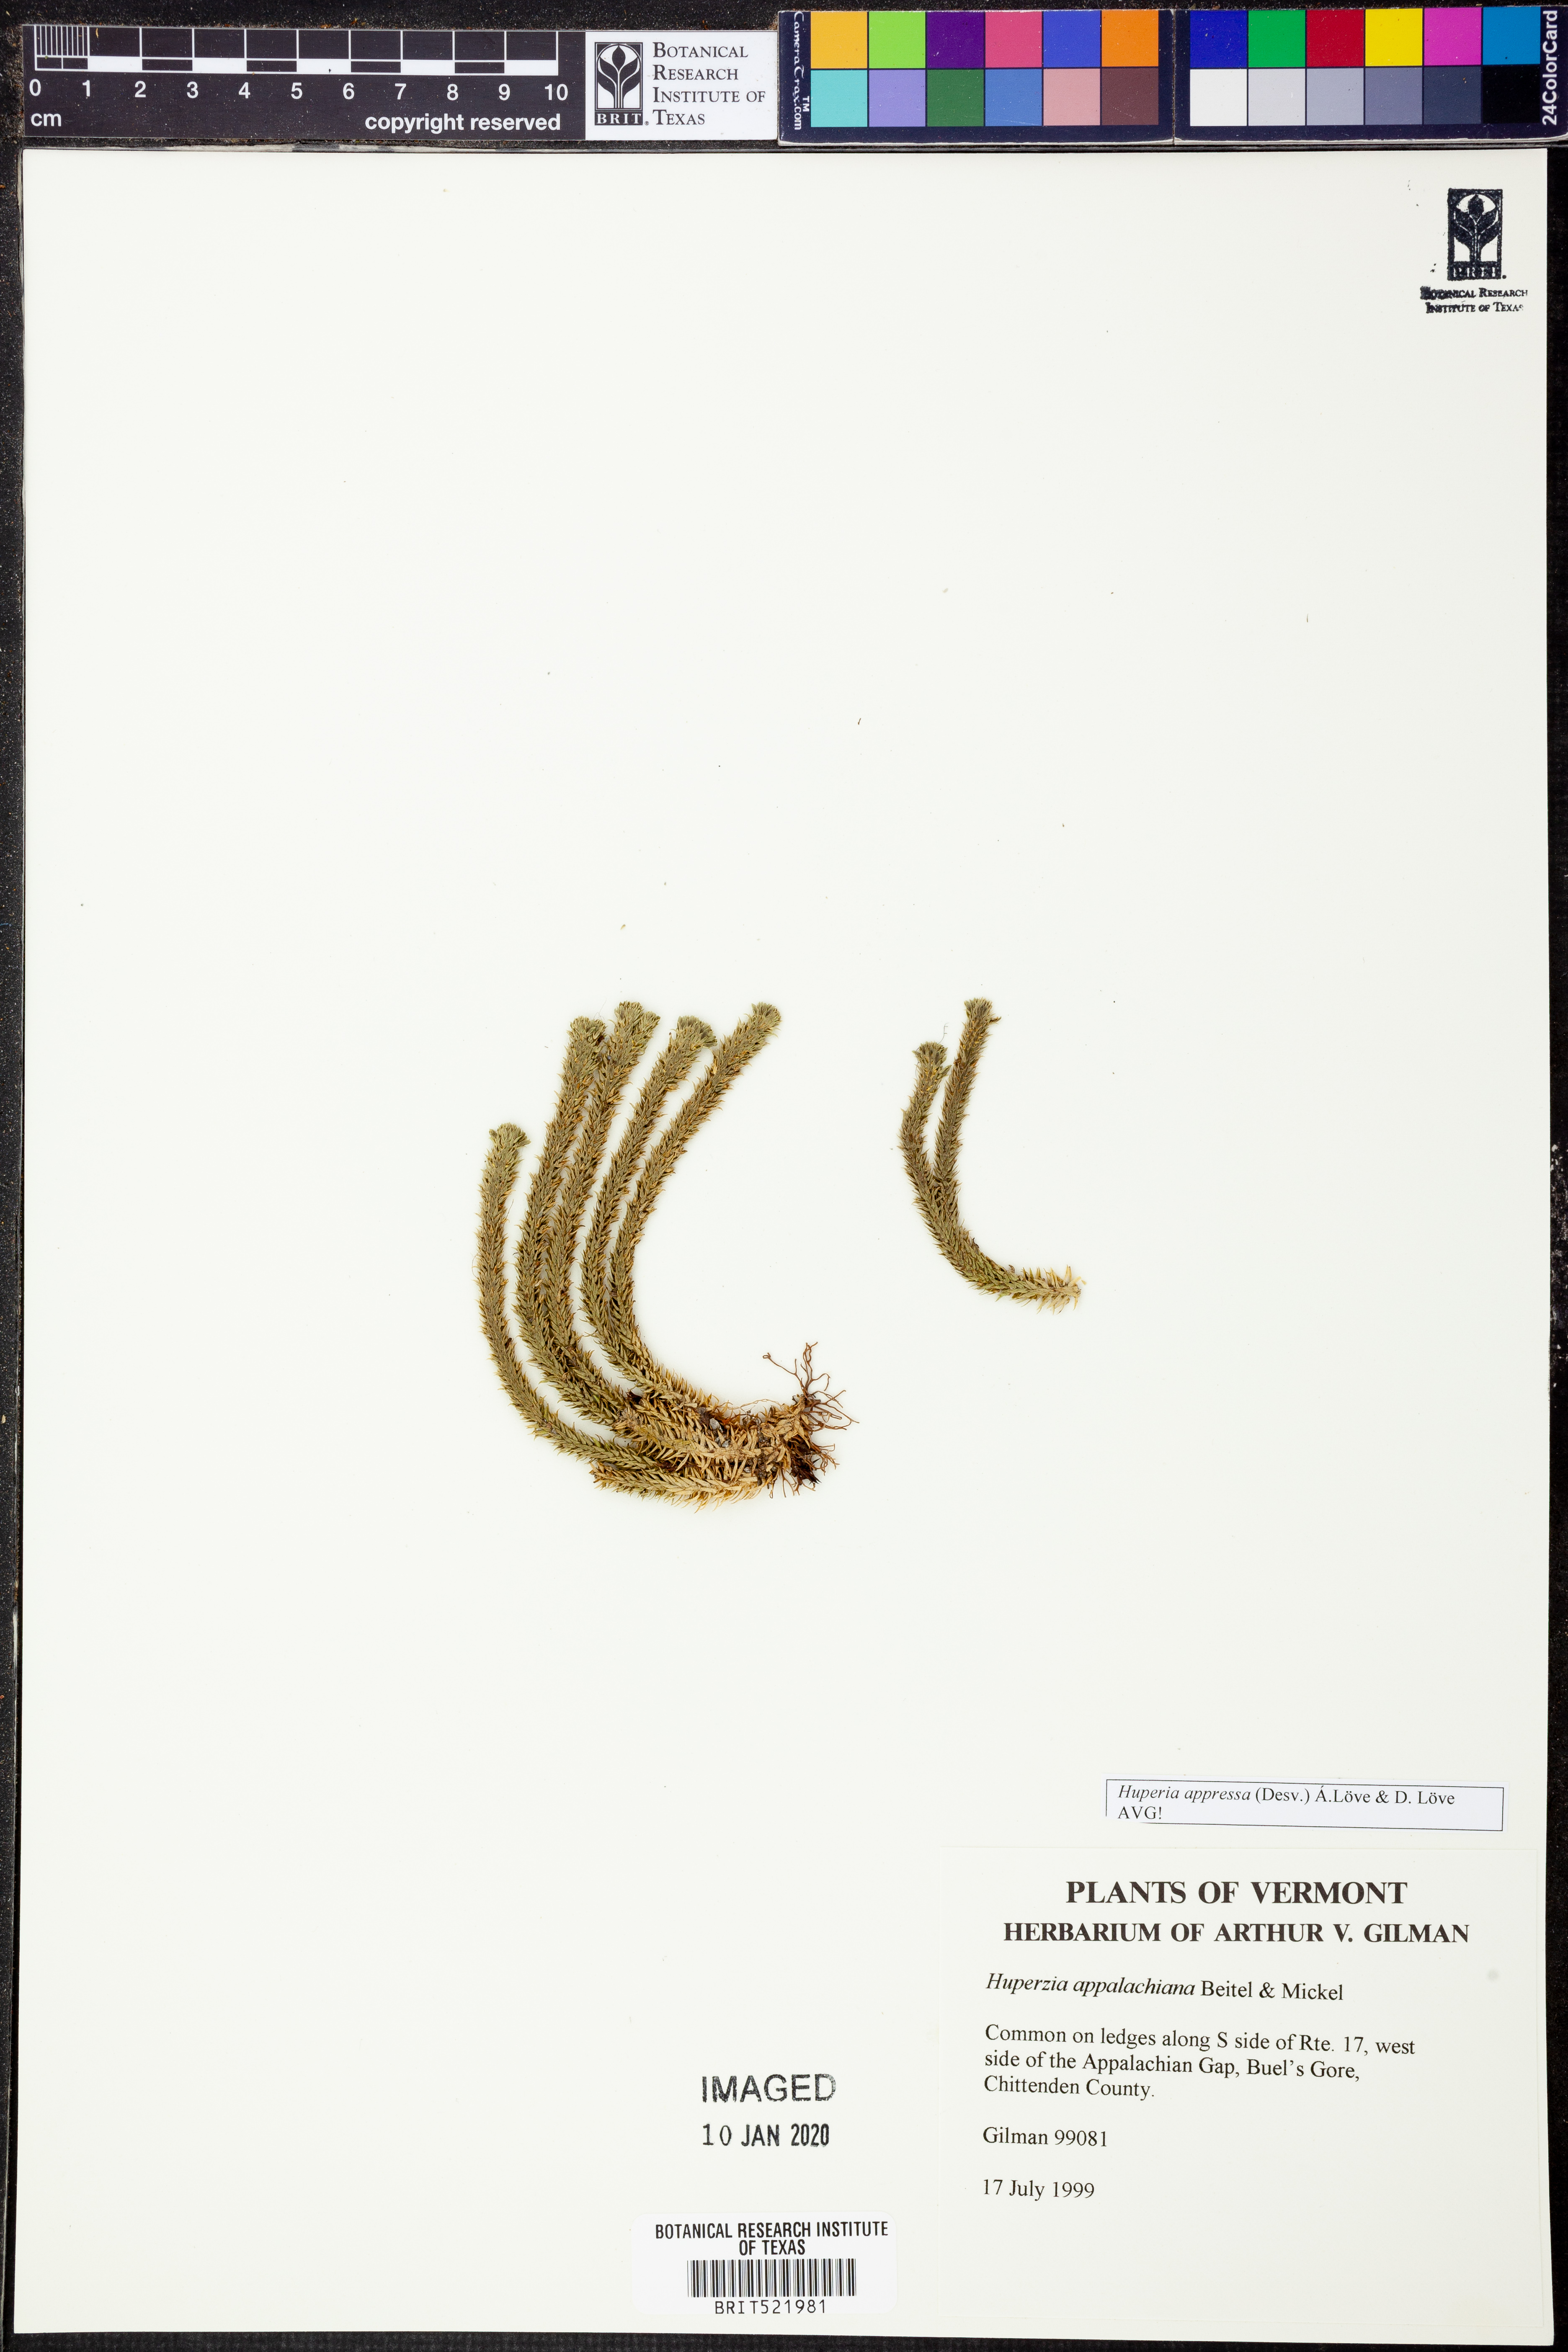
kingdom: Plantae
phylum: Tracheophyta
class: Lycopodiopsida
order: Lycopodiales
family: Lycopodiaceae
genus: Huperzia
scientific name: Huperzia selago
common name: Northern firmoss
